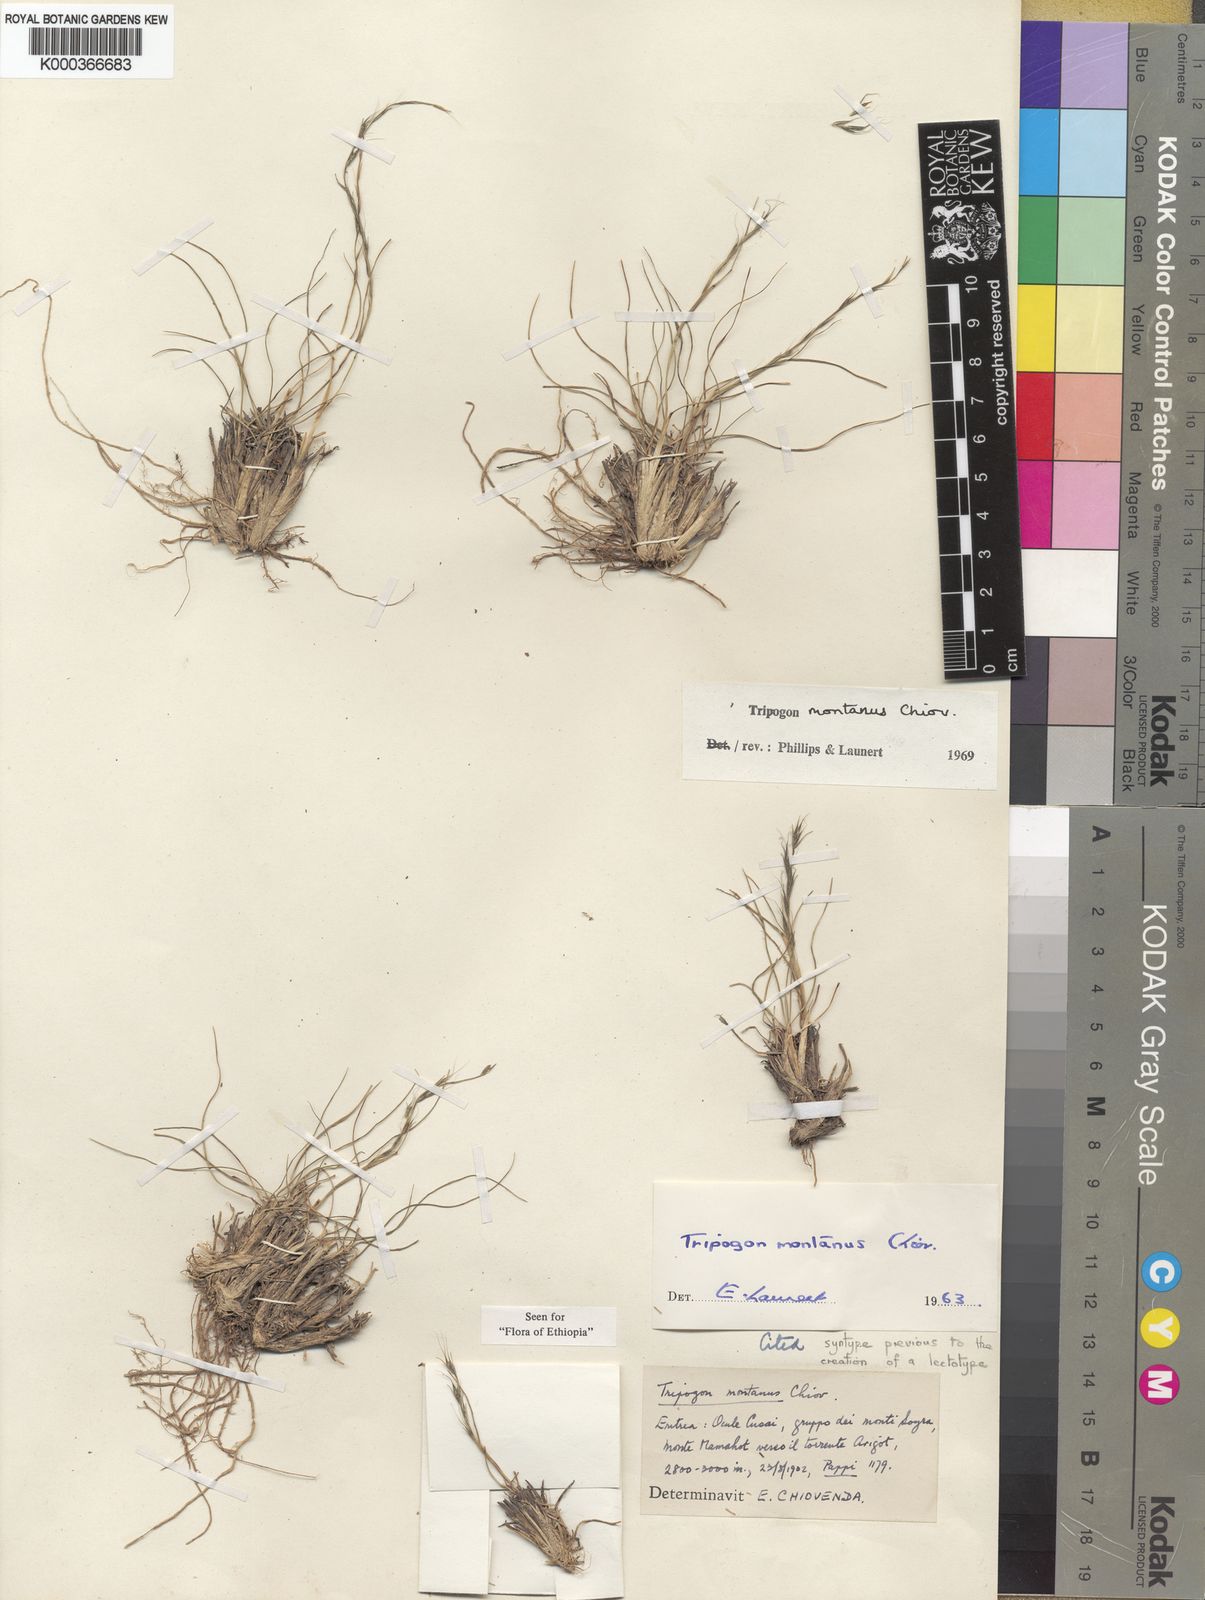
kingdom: Plantae
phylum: Tracheophyta
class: Liliopsida
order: Poales
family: Poaceae
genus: Tripogon
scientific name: Tripogon montanus
